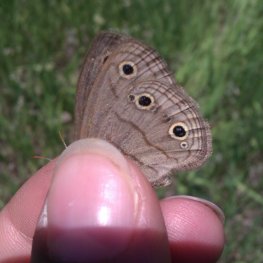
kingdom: Animalia
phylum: Arthropoda
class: Insecta
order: Lepidoptera
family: Nymphalidae
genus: Euptychia
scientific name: Euptychia cymela
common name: Little Wood Satyr
